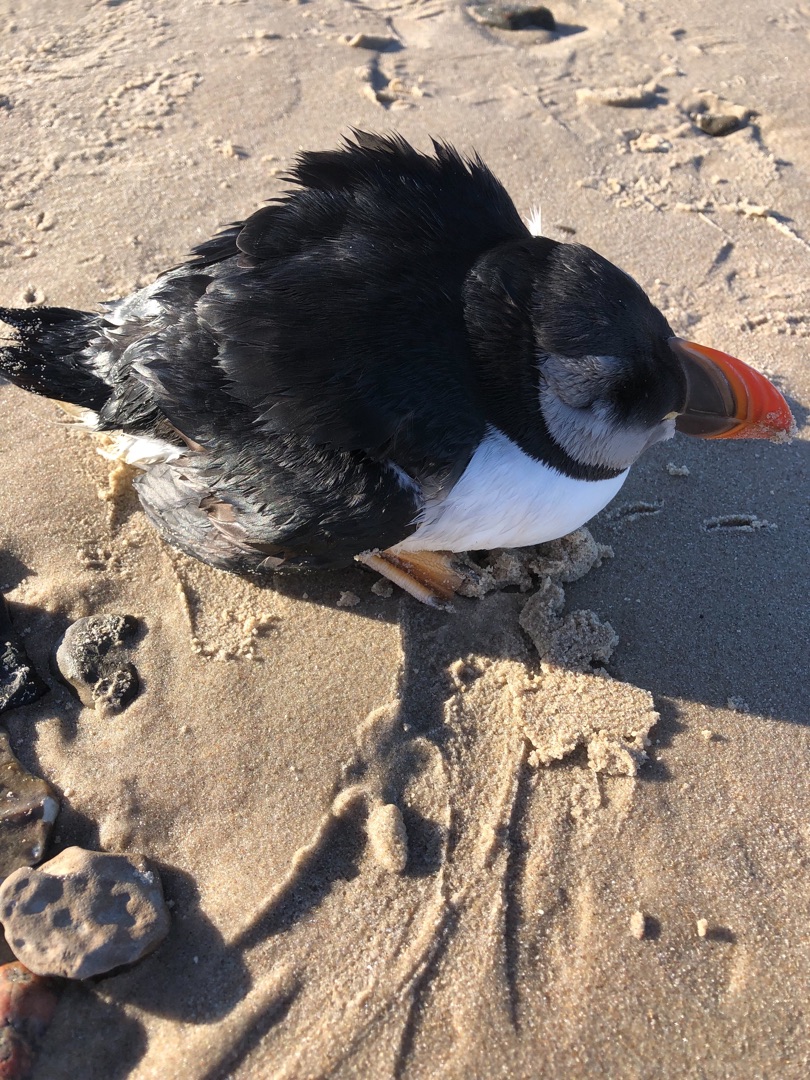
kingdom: Animalia
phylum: Chordata
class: Aves
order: Charadriiformes
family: Alcidae
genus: Fratercula
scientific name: Fratercula arctica
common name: Lunde
